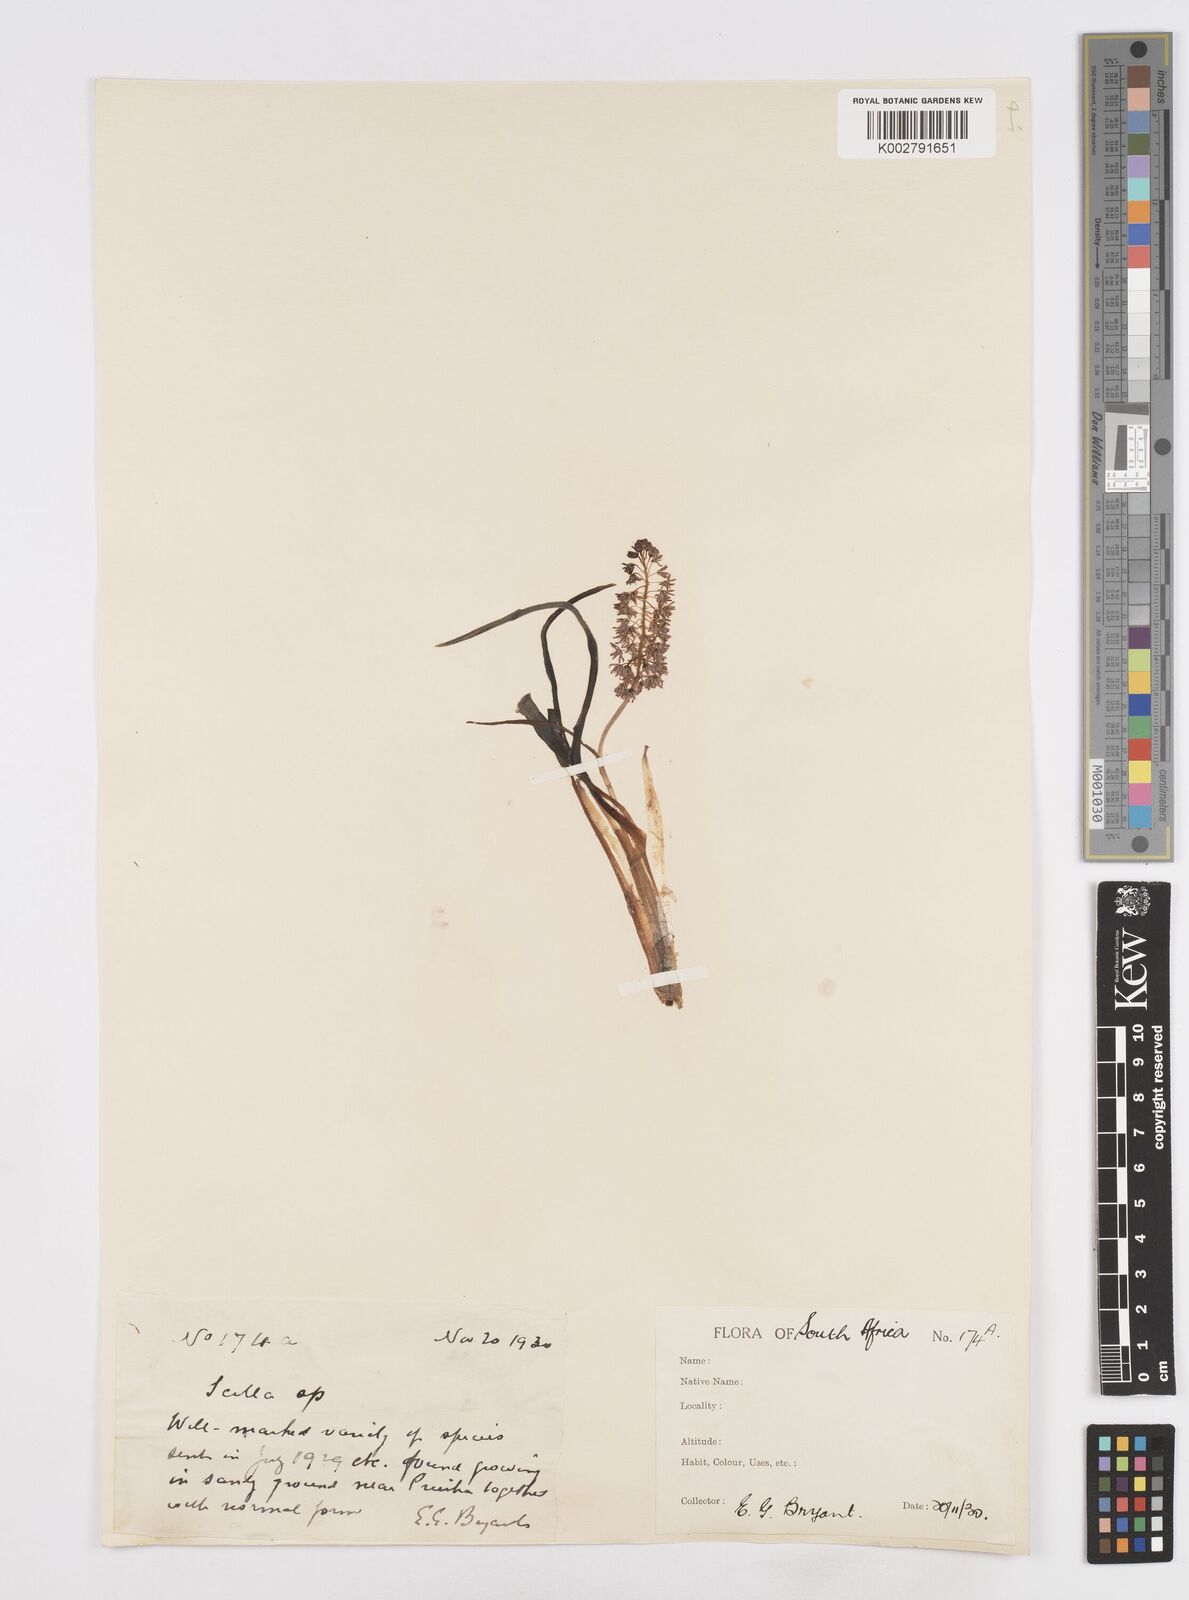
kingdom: Plantae
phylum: Tracheophyta
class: Liliopsida
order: Asparagales
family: Asparagaceae
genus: Scilla
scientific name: Scilla
